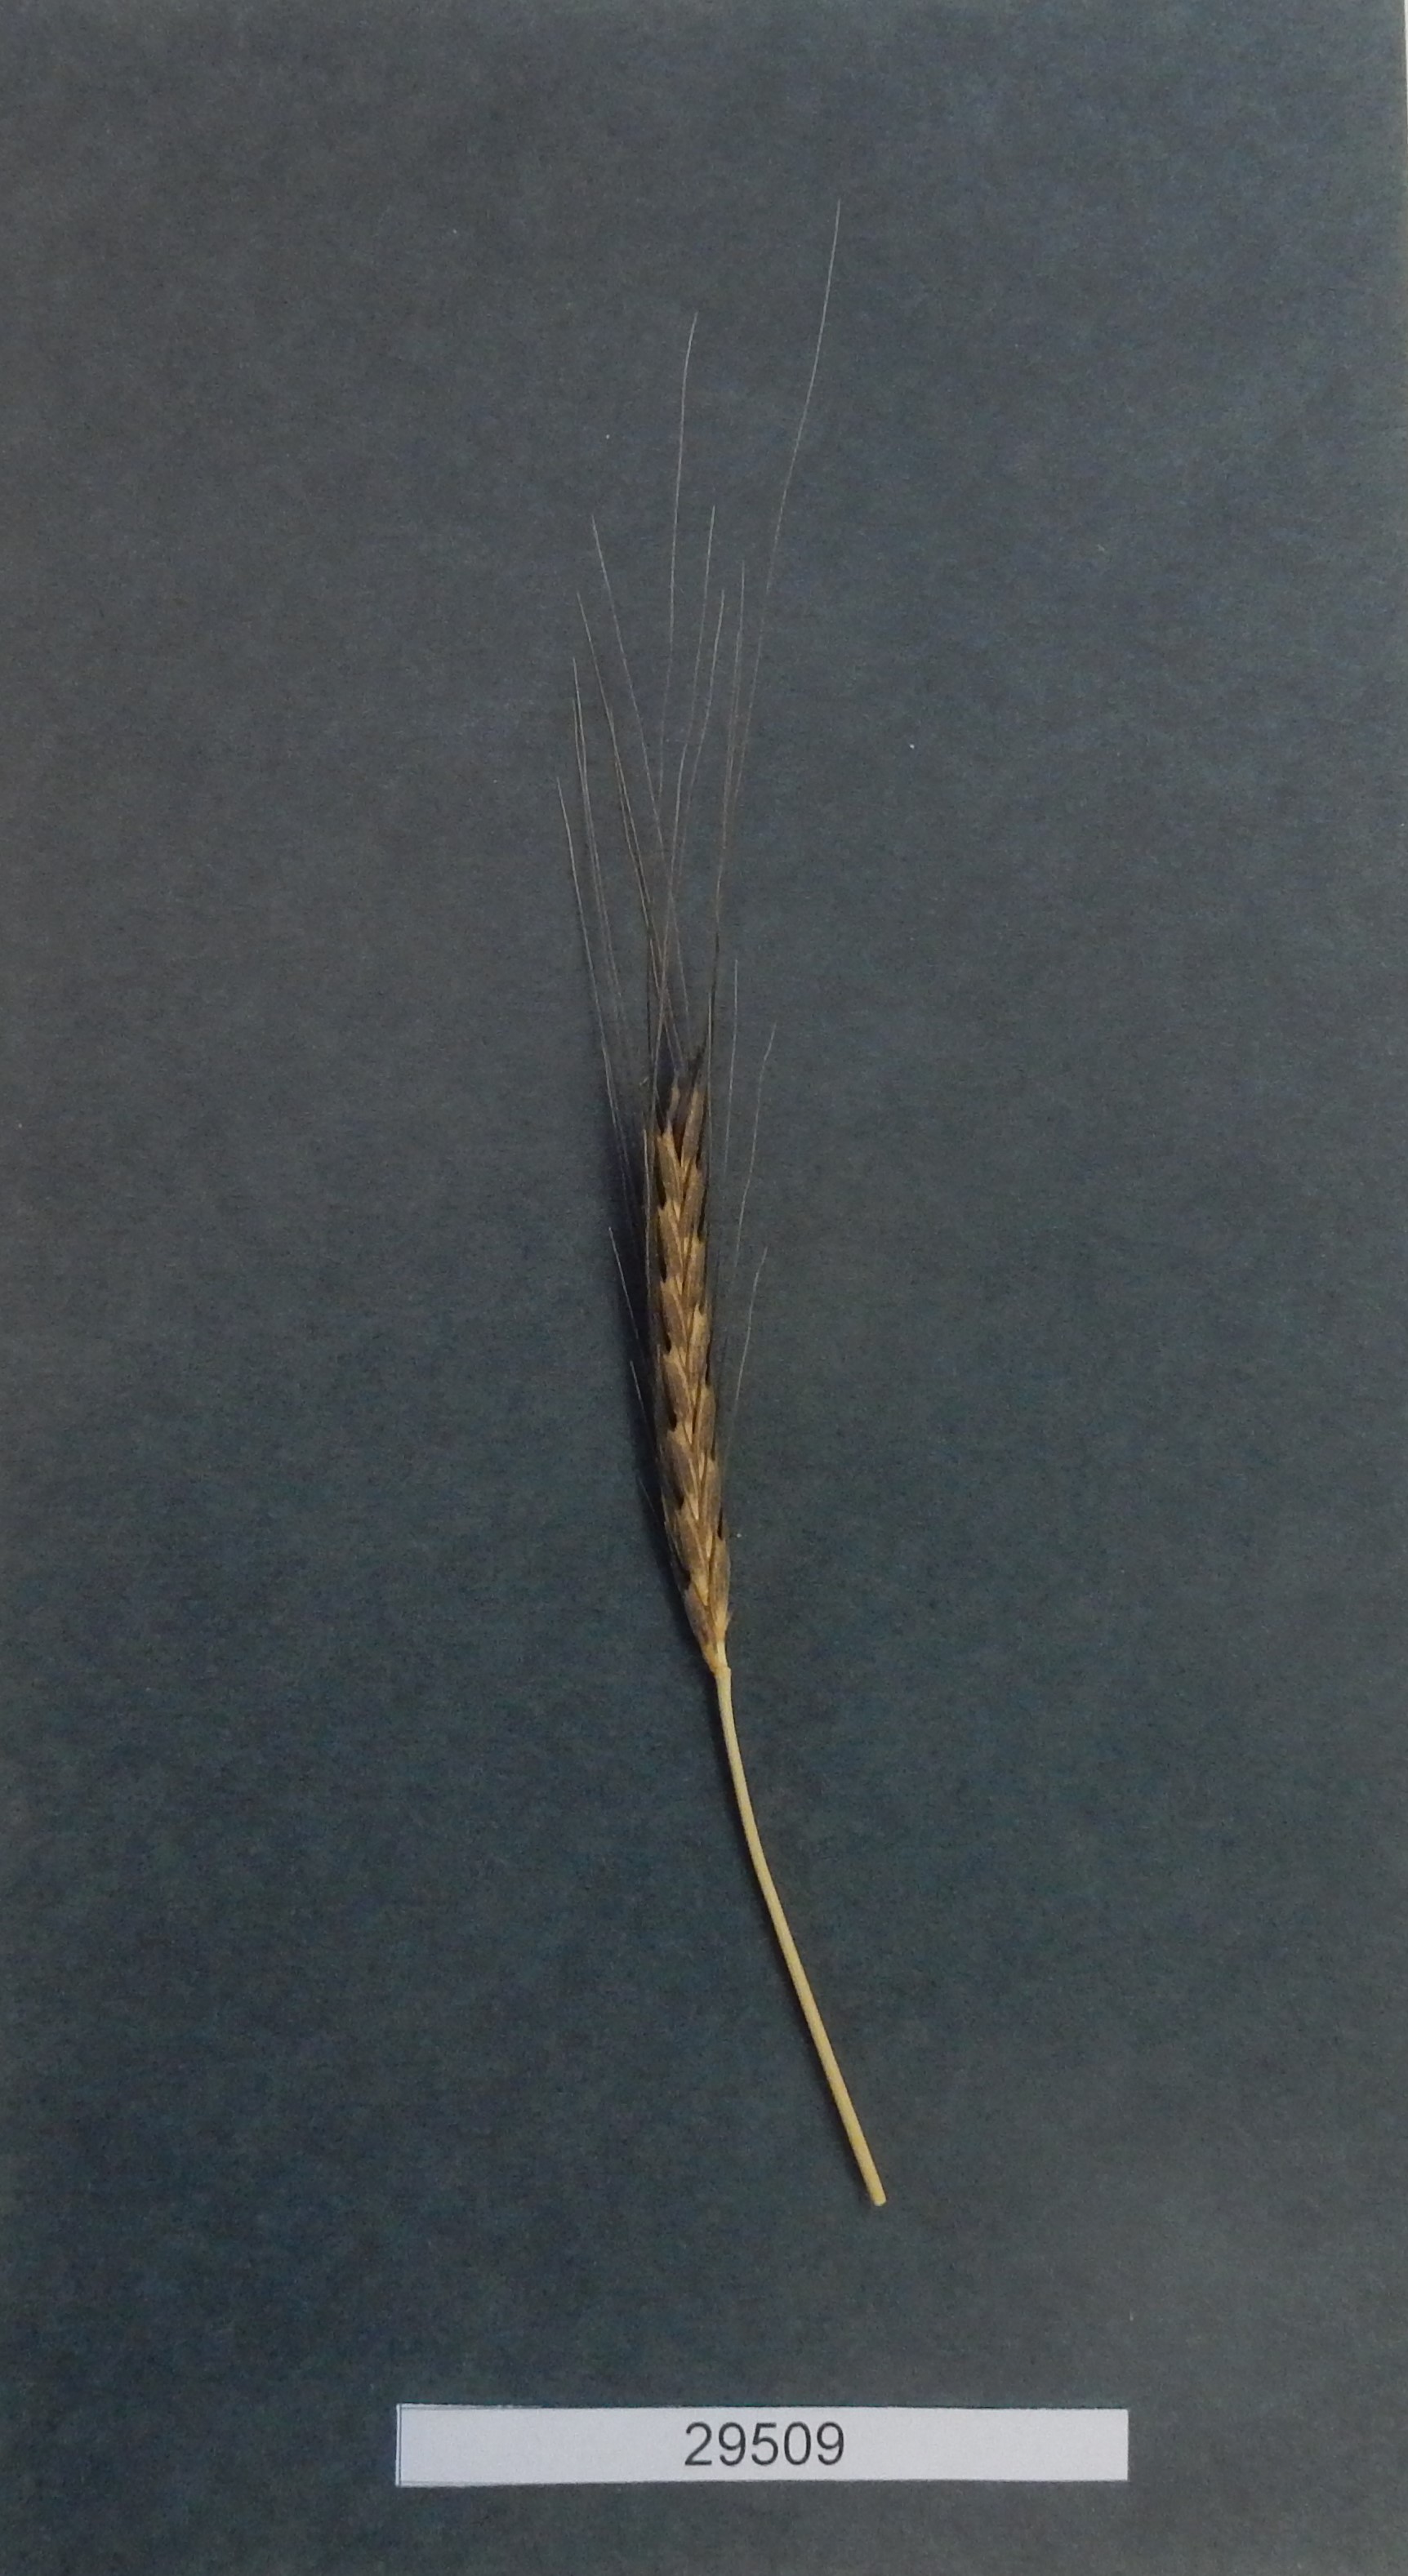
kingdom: Plantae
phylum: Tracheophyta
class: Liliopsida
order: Poales
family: Poaceae
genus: Triticum
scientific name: Triticum urartu
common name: Red wild einkorn
